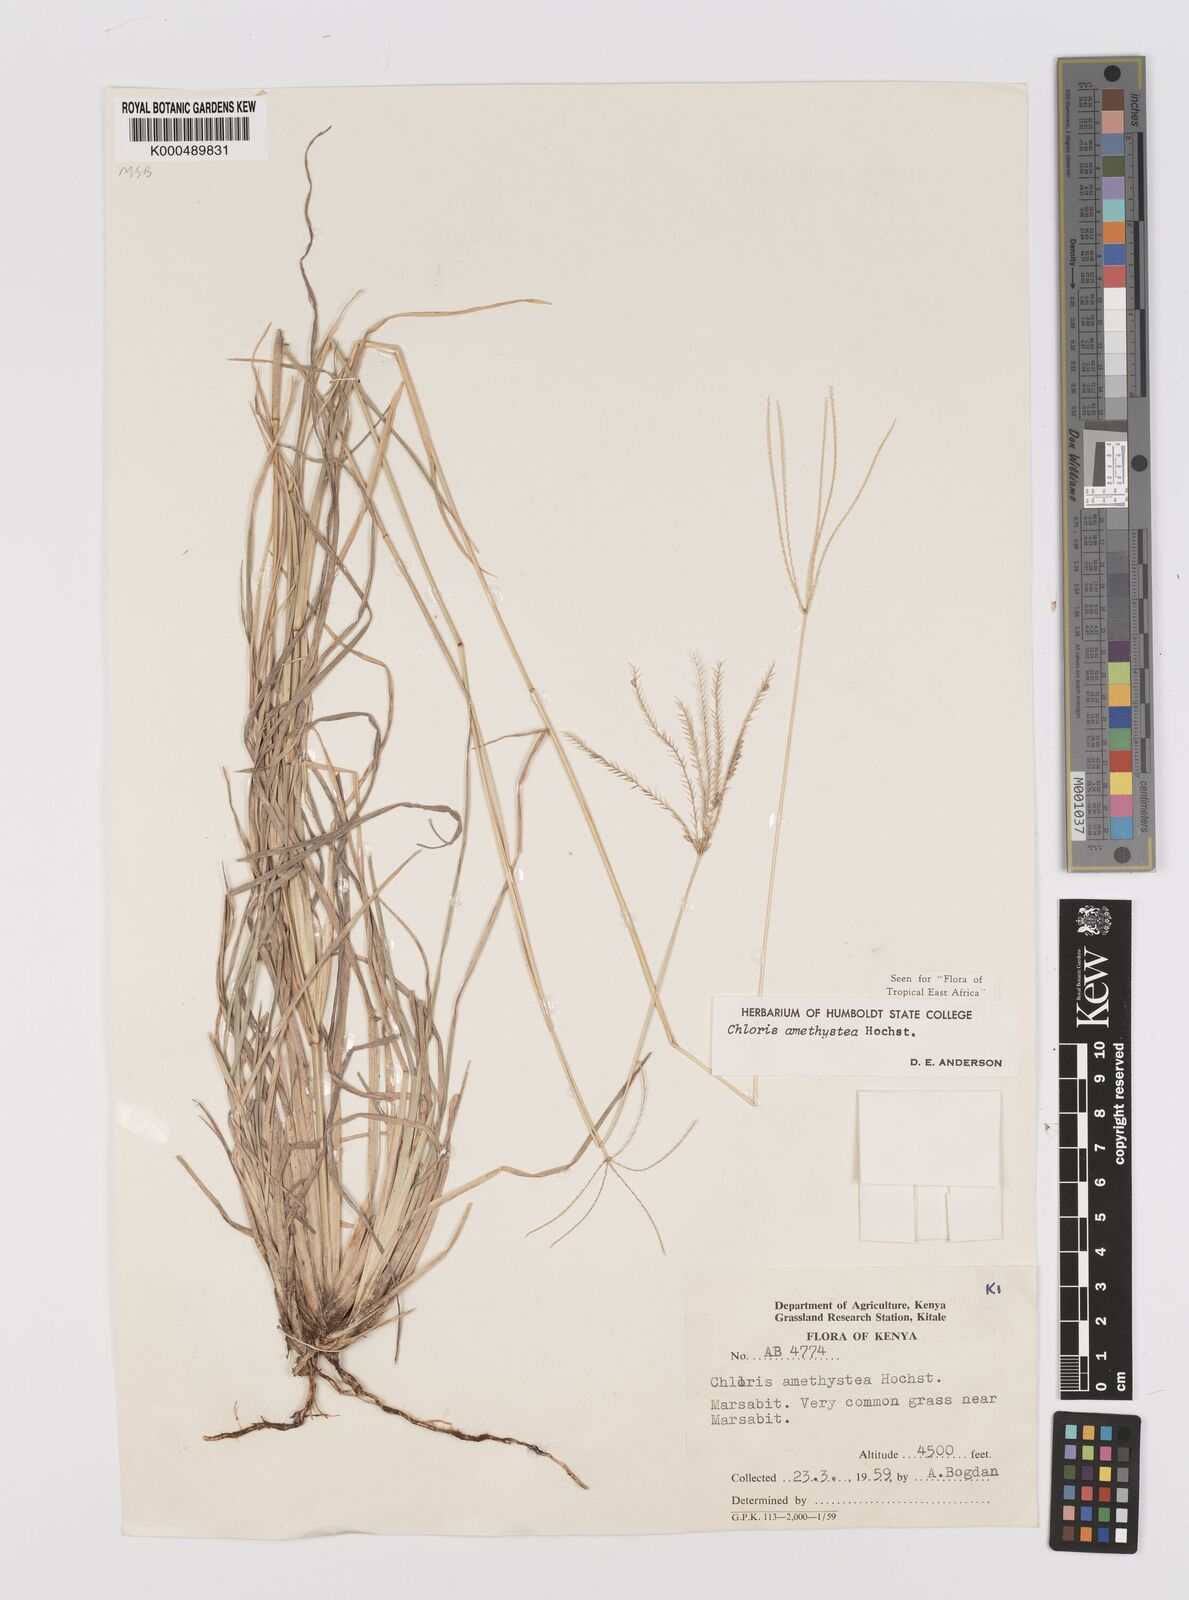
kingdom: Plantae
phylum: Tracheophyta
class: Liliopsida
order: Poales
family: Poaceae
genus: Chloris
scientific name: Chloris amethystea
